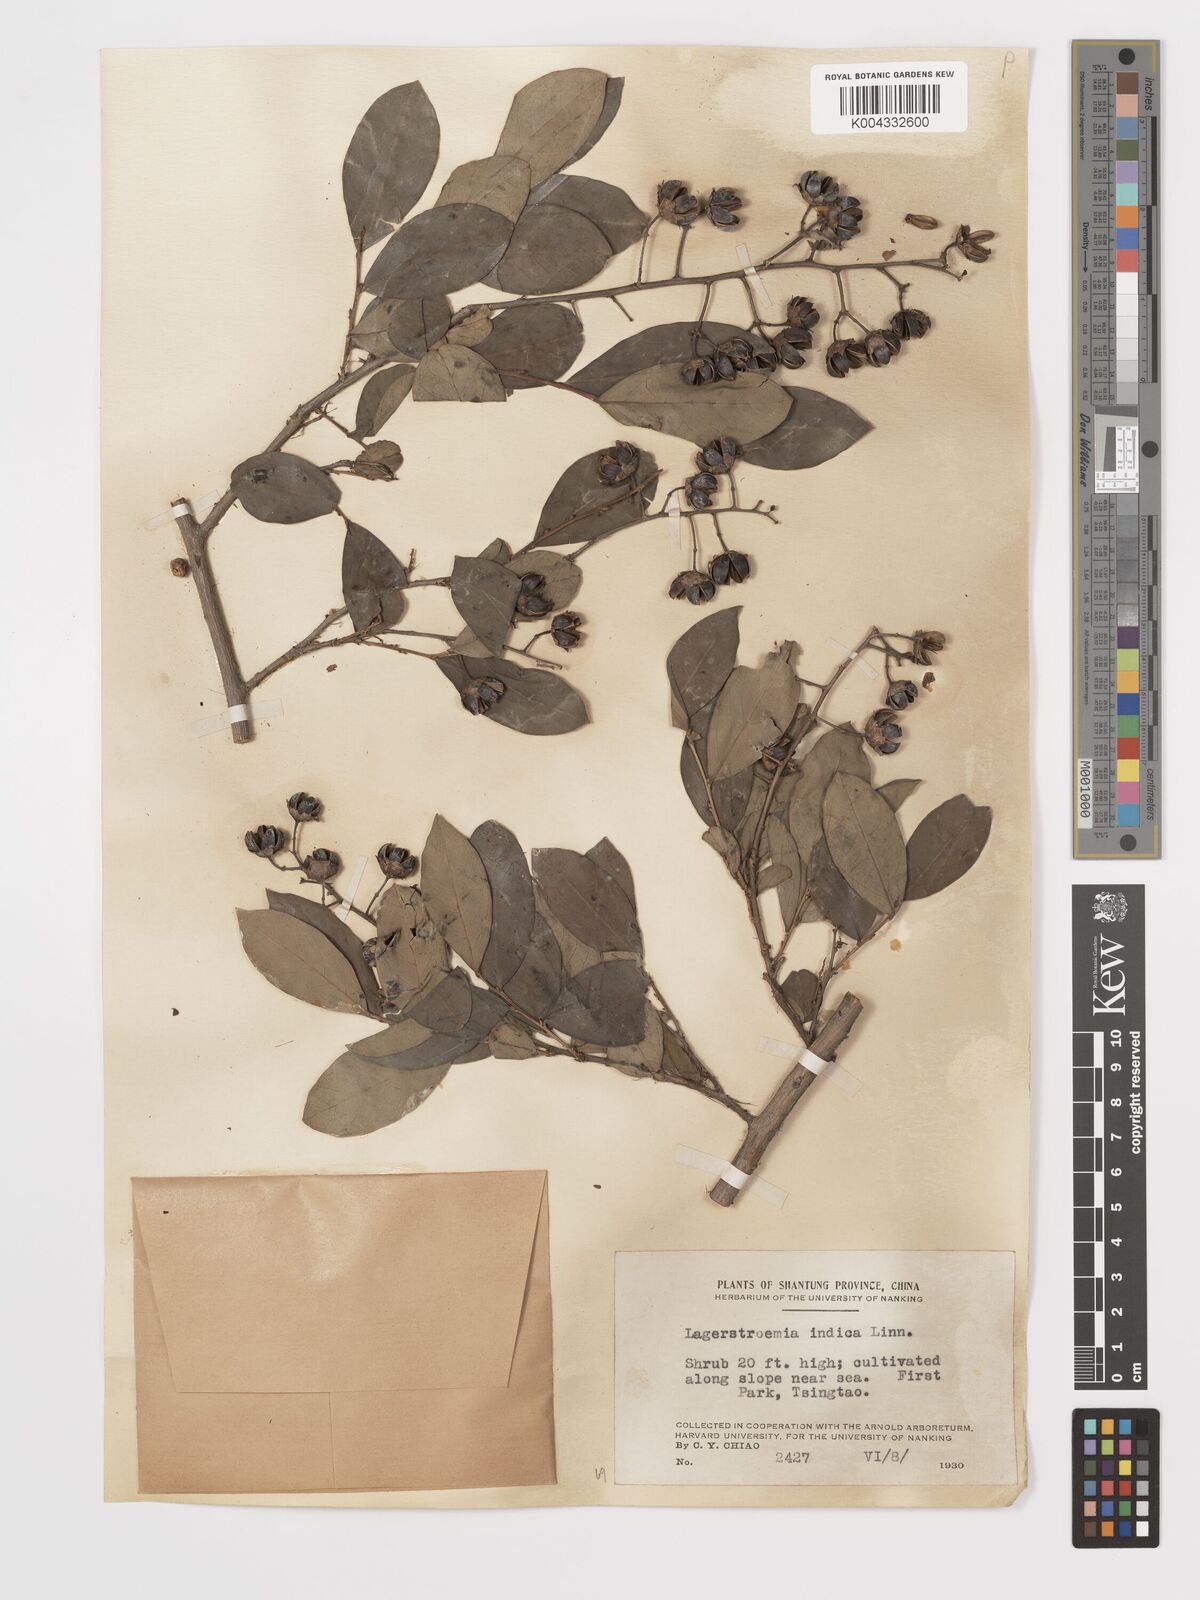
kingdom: Plantae
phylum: Tracheophyta
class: Magnoliopsida
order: Myrtales
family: Lythraceae
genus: Lagerstroemia
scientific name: Lagerstroemia indica
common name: Crape-myrtle
